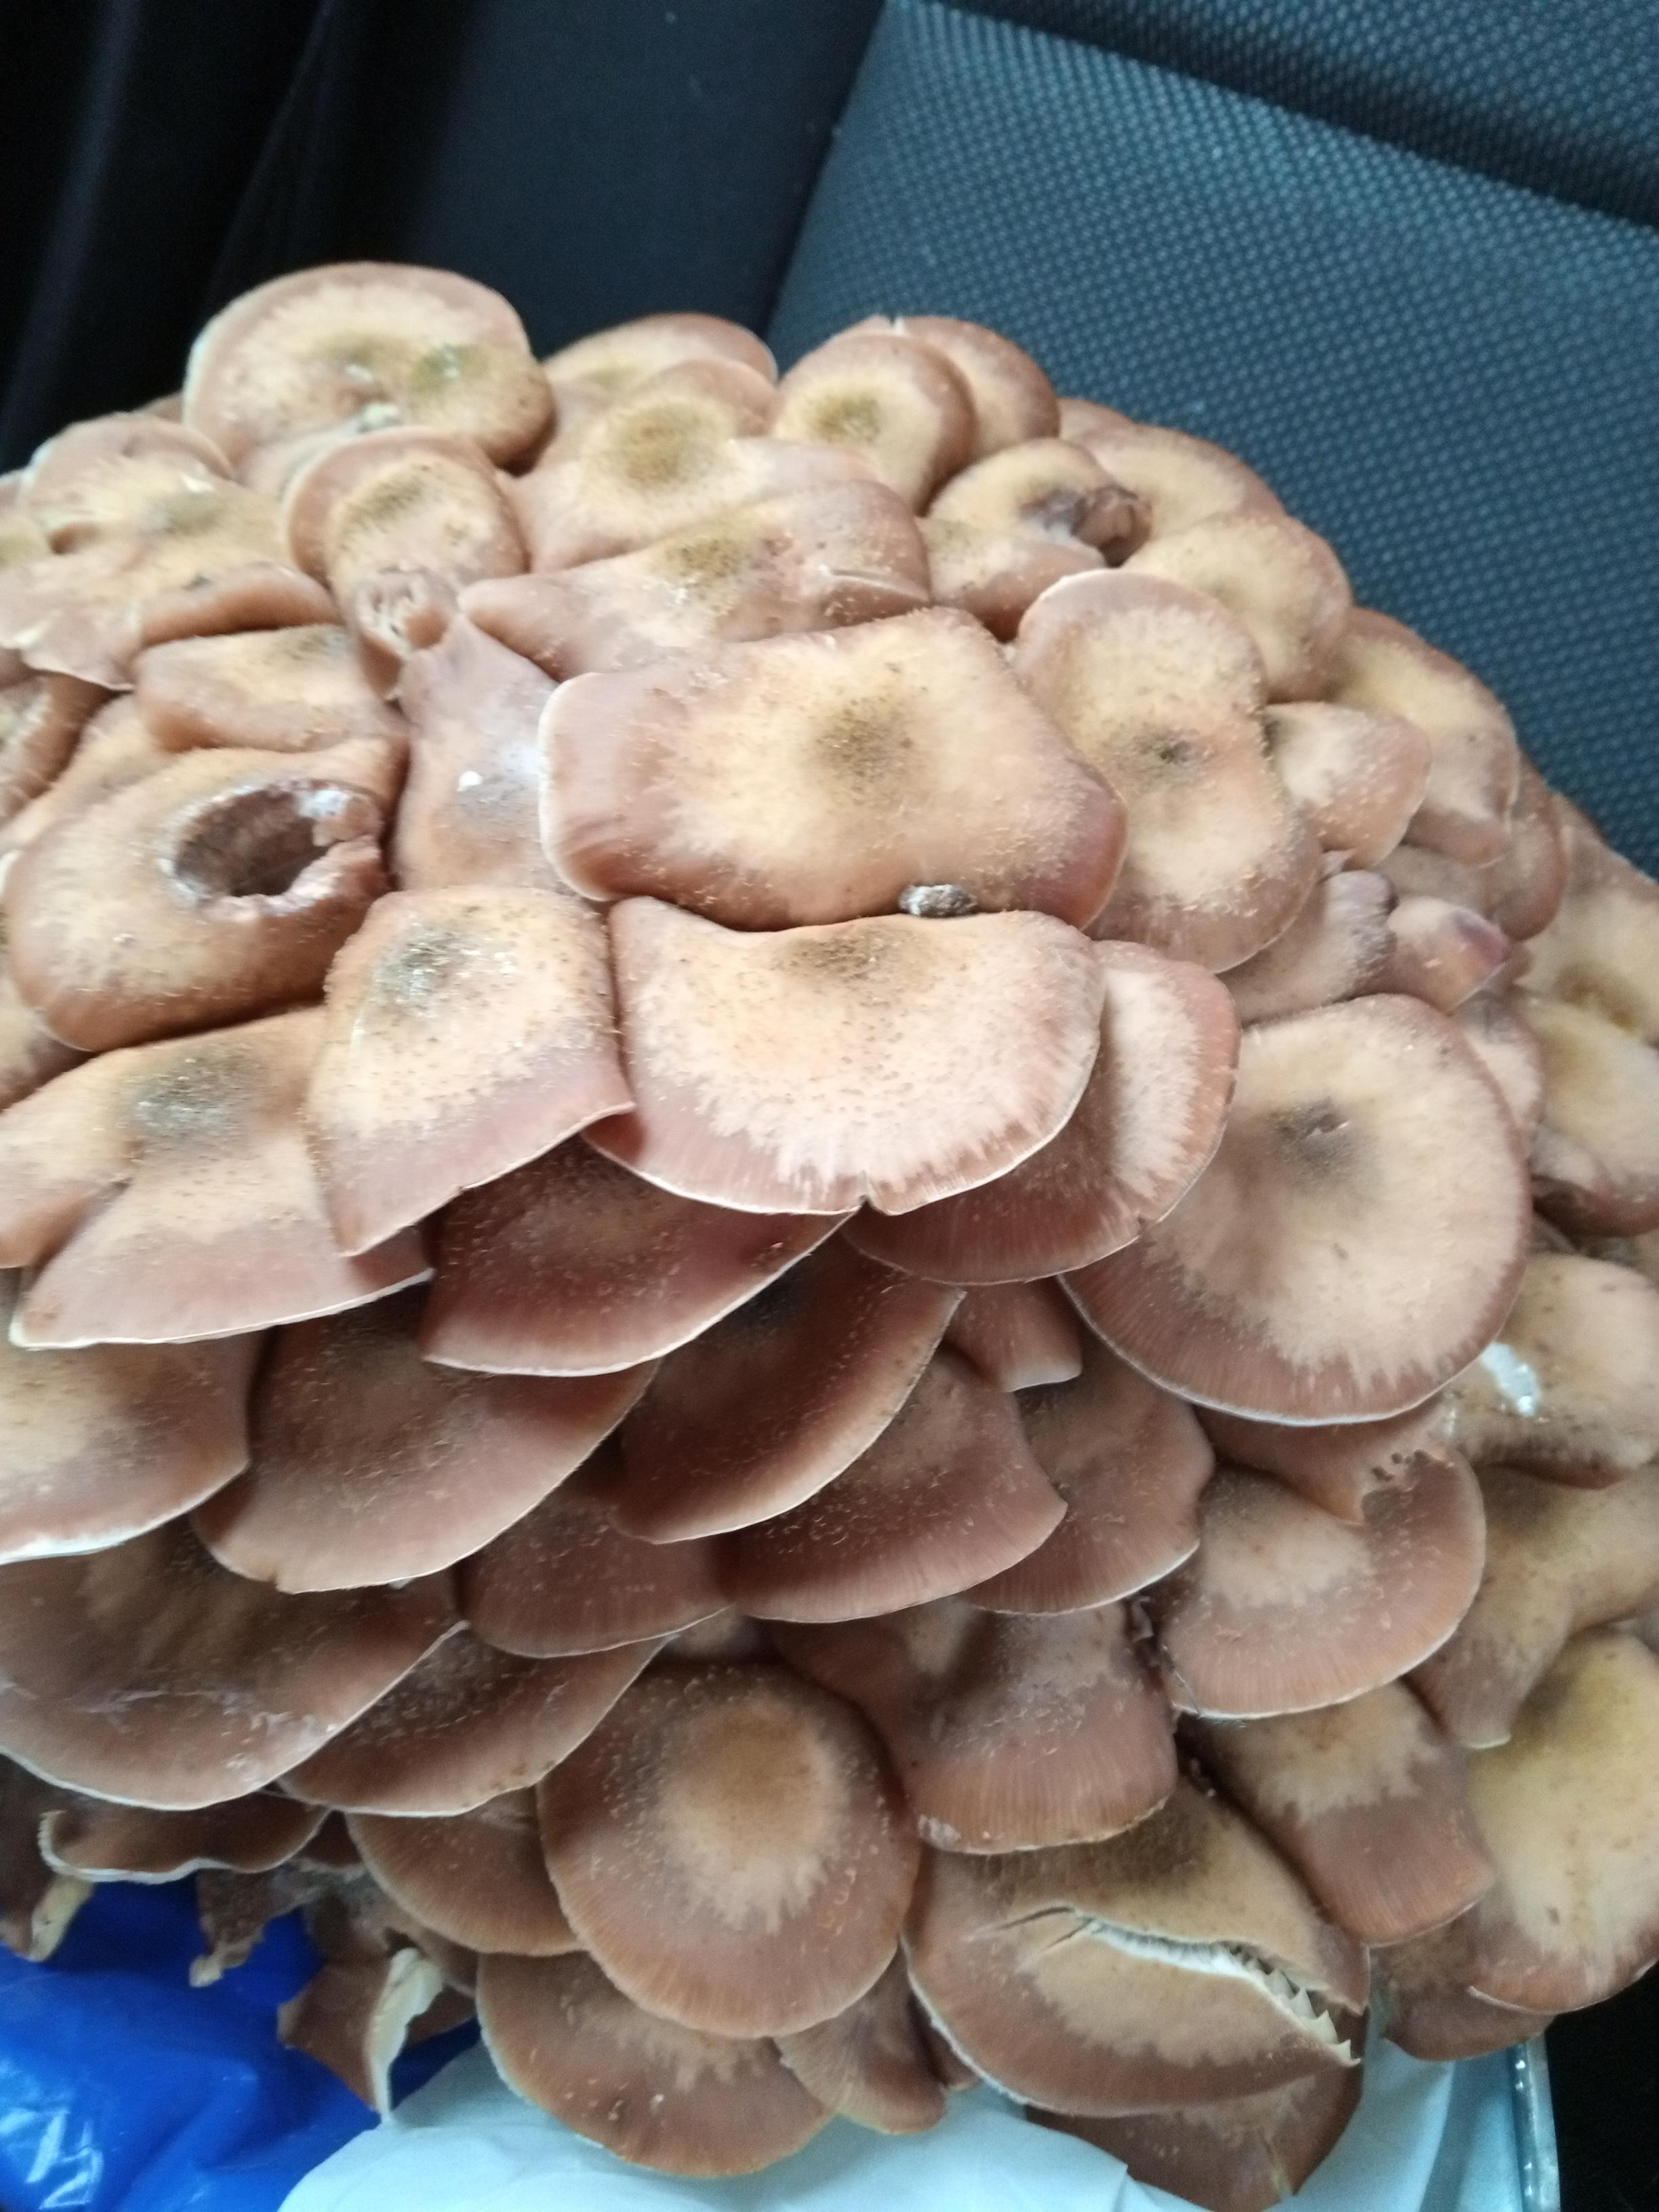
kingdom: Fungi
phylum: Basidiomycota
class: Agaricomycetes
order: Agaricales
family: Physalacriaceae
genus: Armillaria
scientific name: Armillaria mellea
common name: ægte honningsvamp
